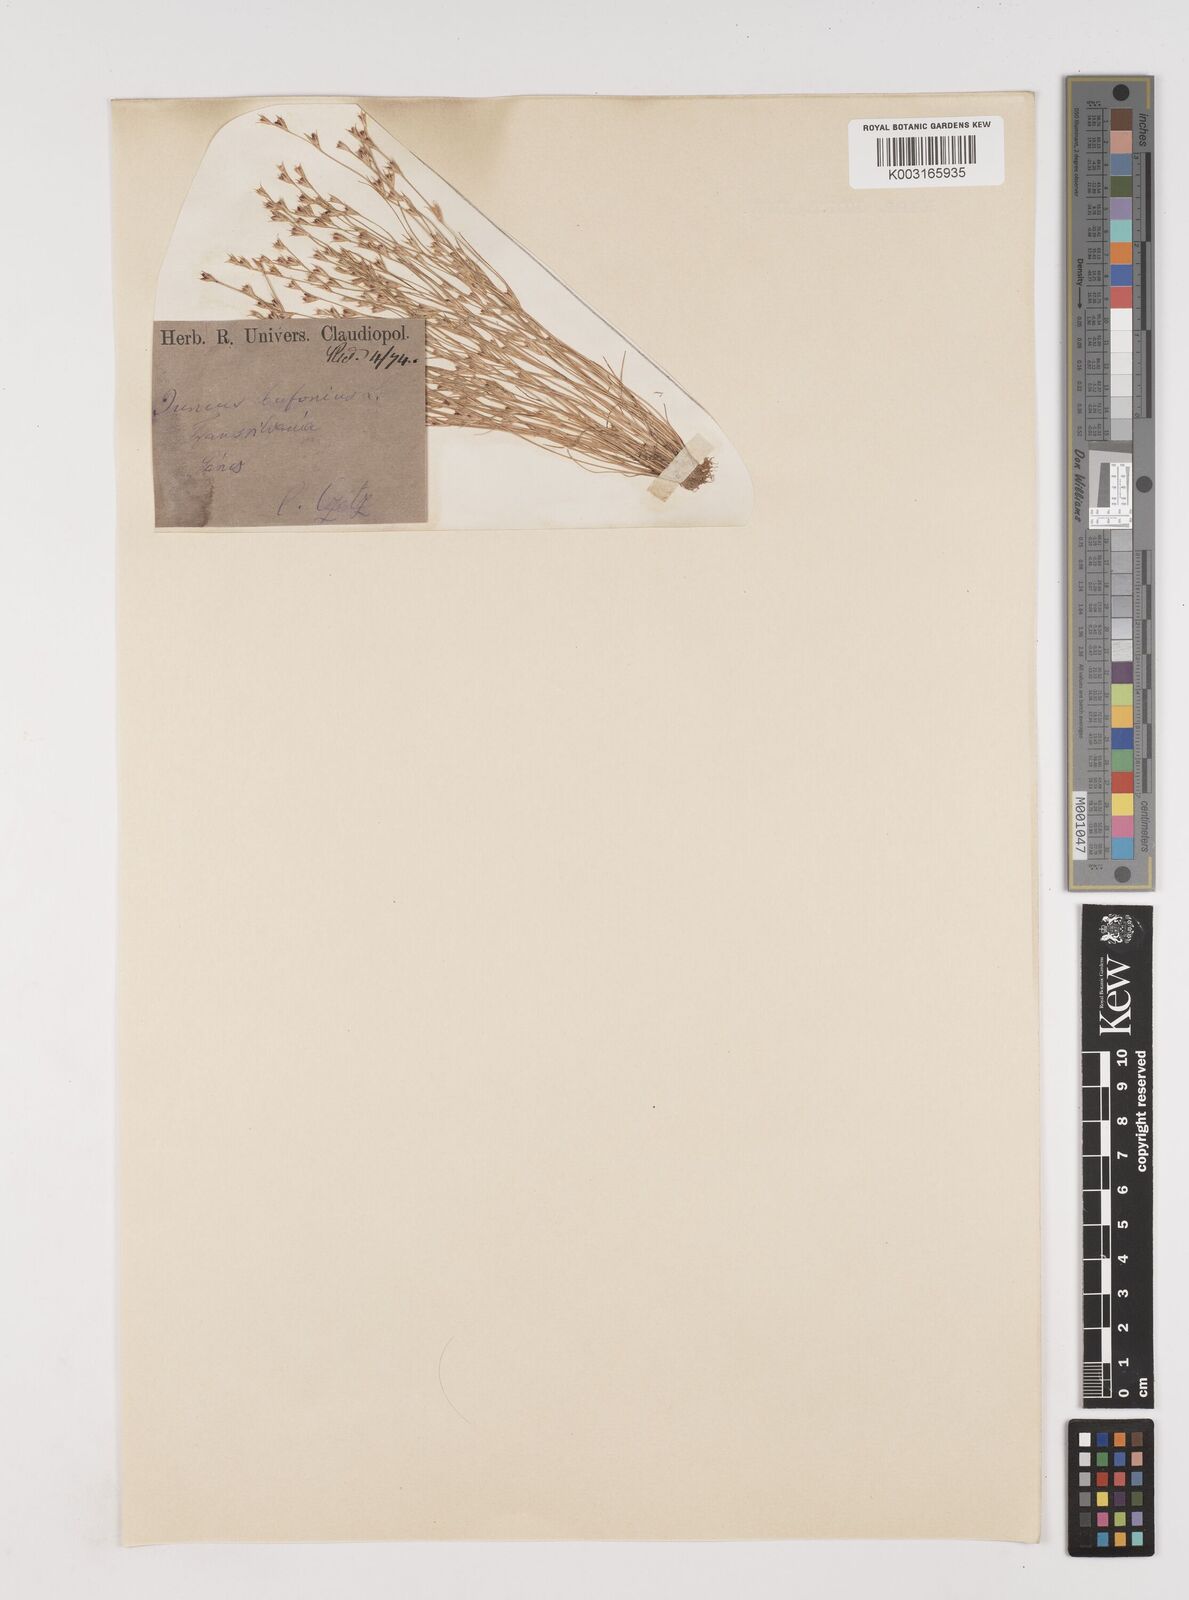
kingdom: Plantae
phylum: Tracheophyta
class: Liliopsida
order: Poales
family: Juncaceae
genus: Juncus
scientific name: Juncus bufonius
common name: Toad rush
